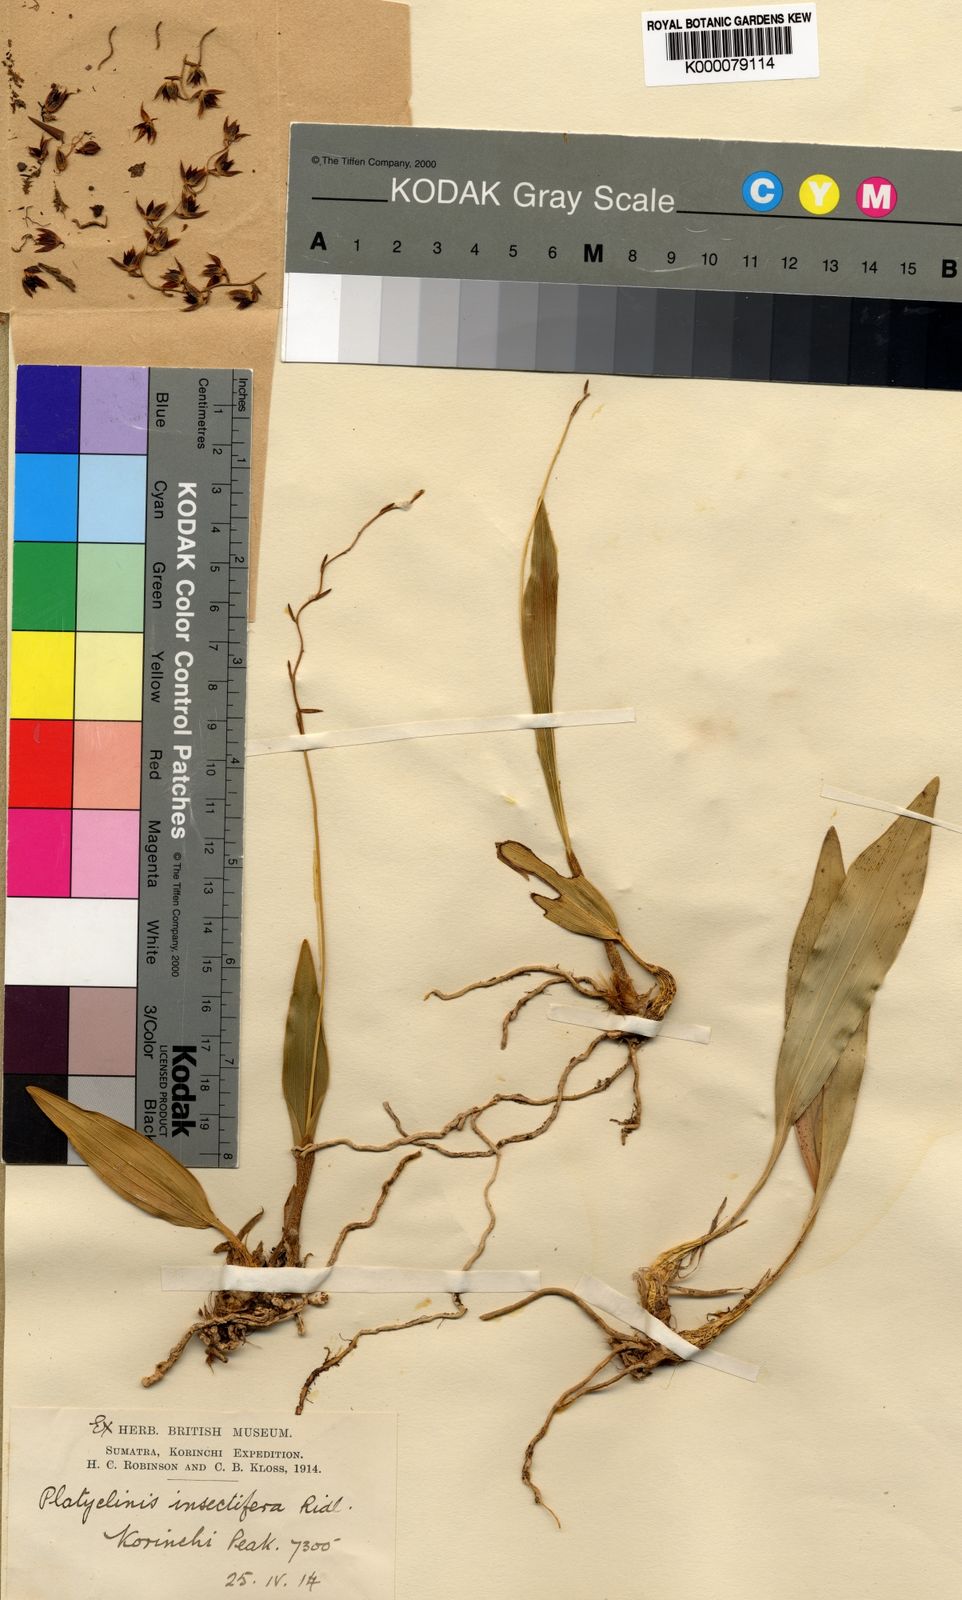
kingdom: Plantae
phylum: Tracheophyta
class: Liliopsida
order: Asparagales
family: Orchidaceae
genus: Coelogyne
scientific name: Coelogyne insectifera
